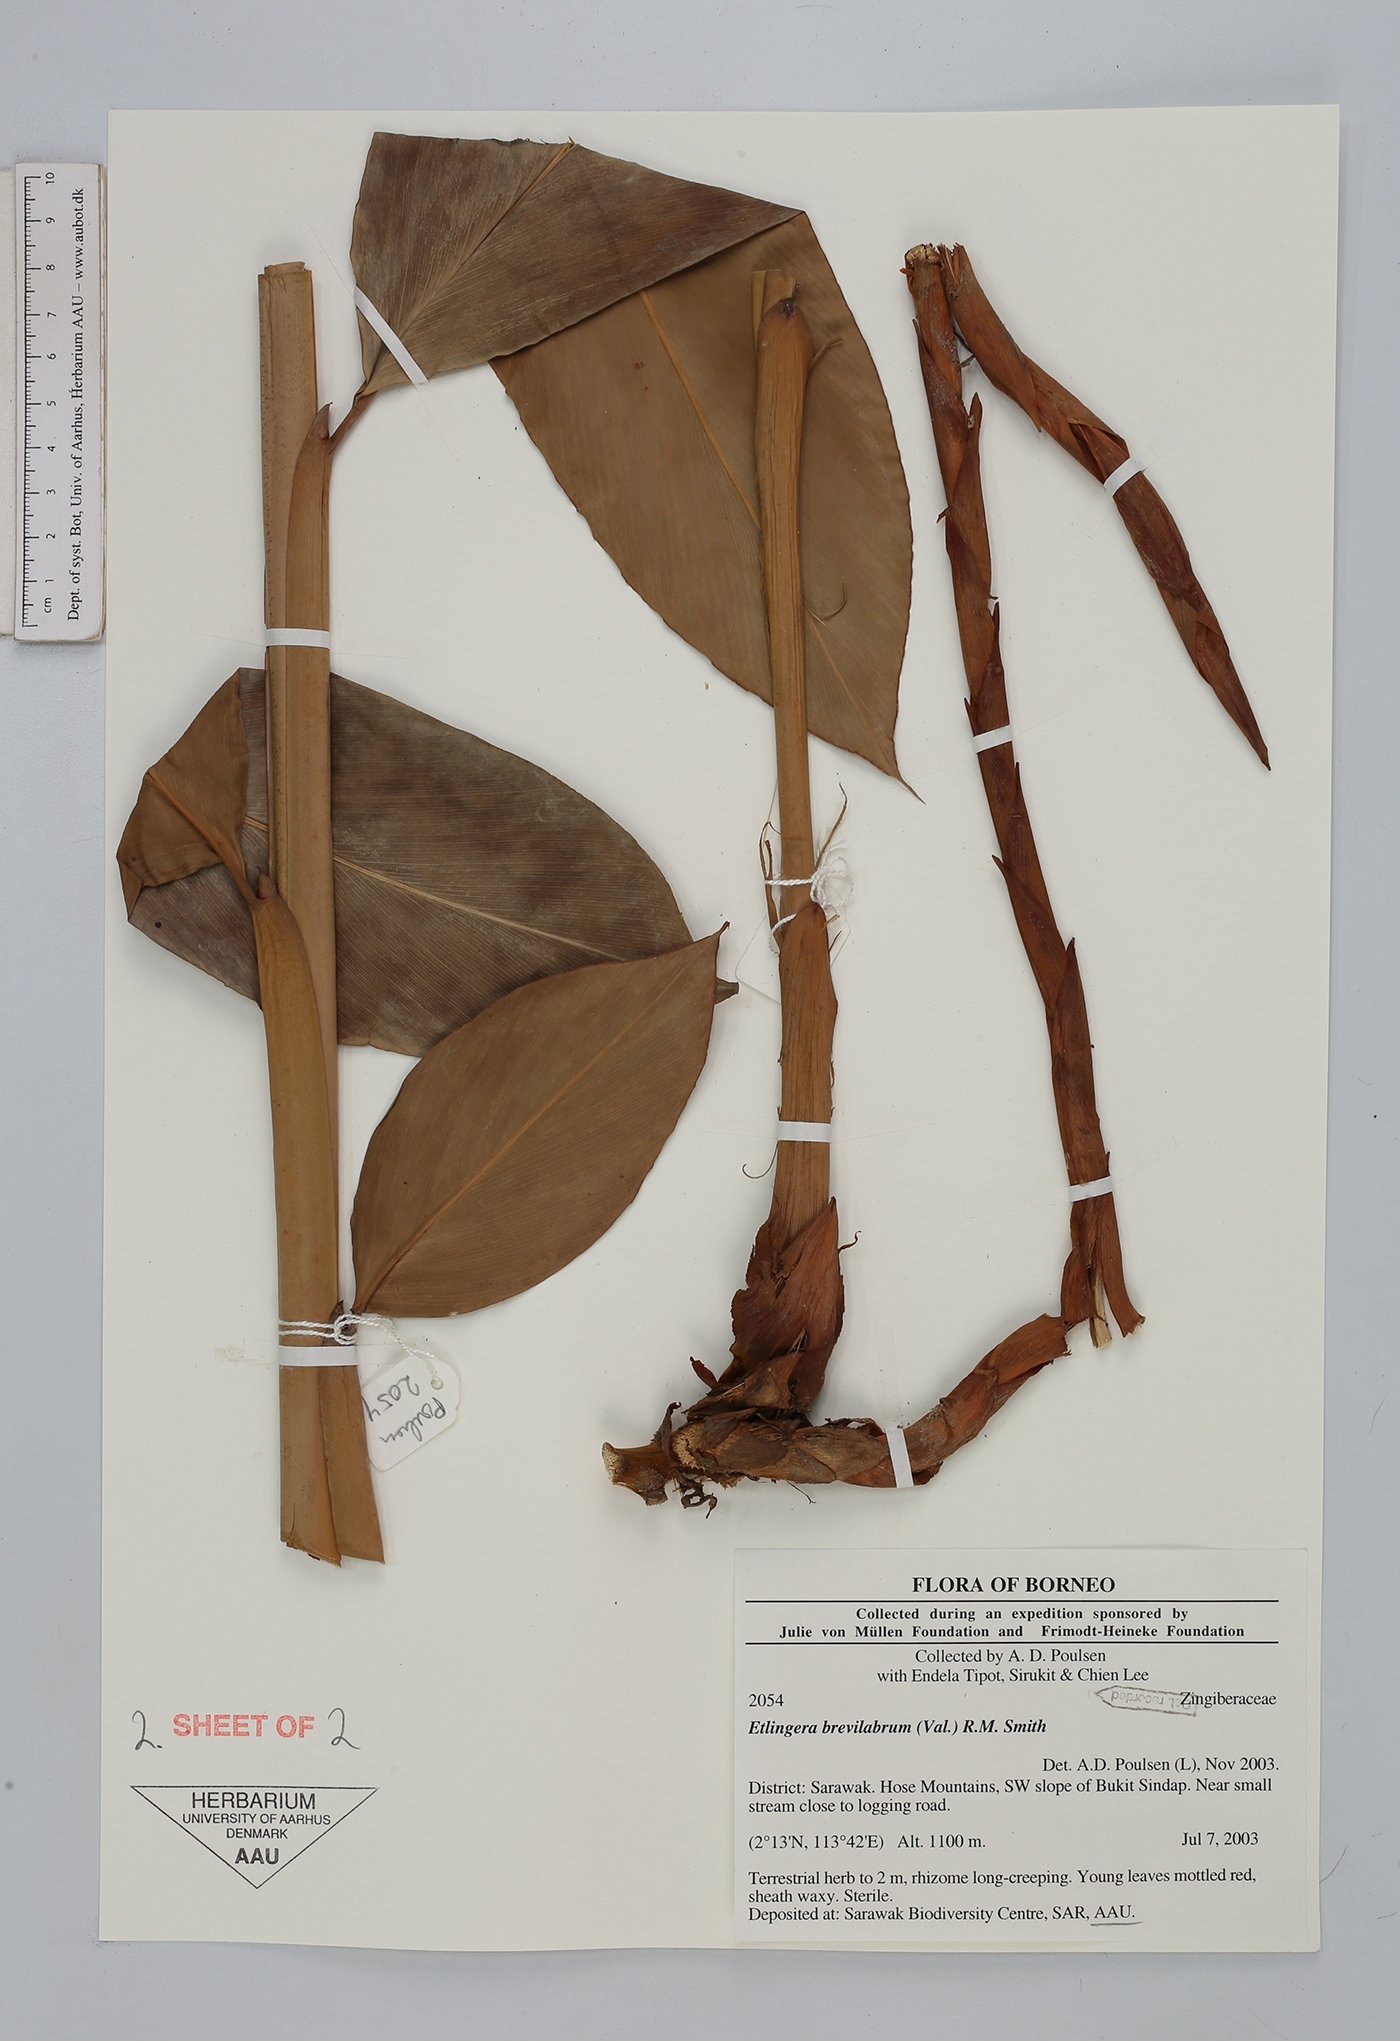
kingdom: Plantae
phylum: Tracheophyta
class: Liliopsida
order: Zingiberales
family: Zingiberaceae
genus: Etlingera
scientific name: Etlingera brevilabrum
